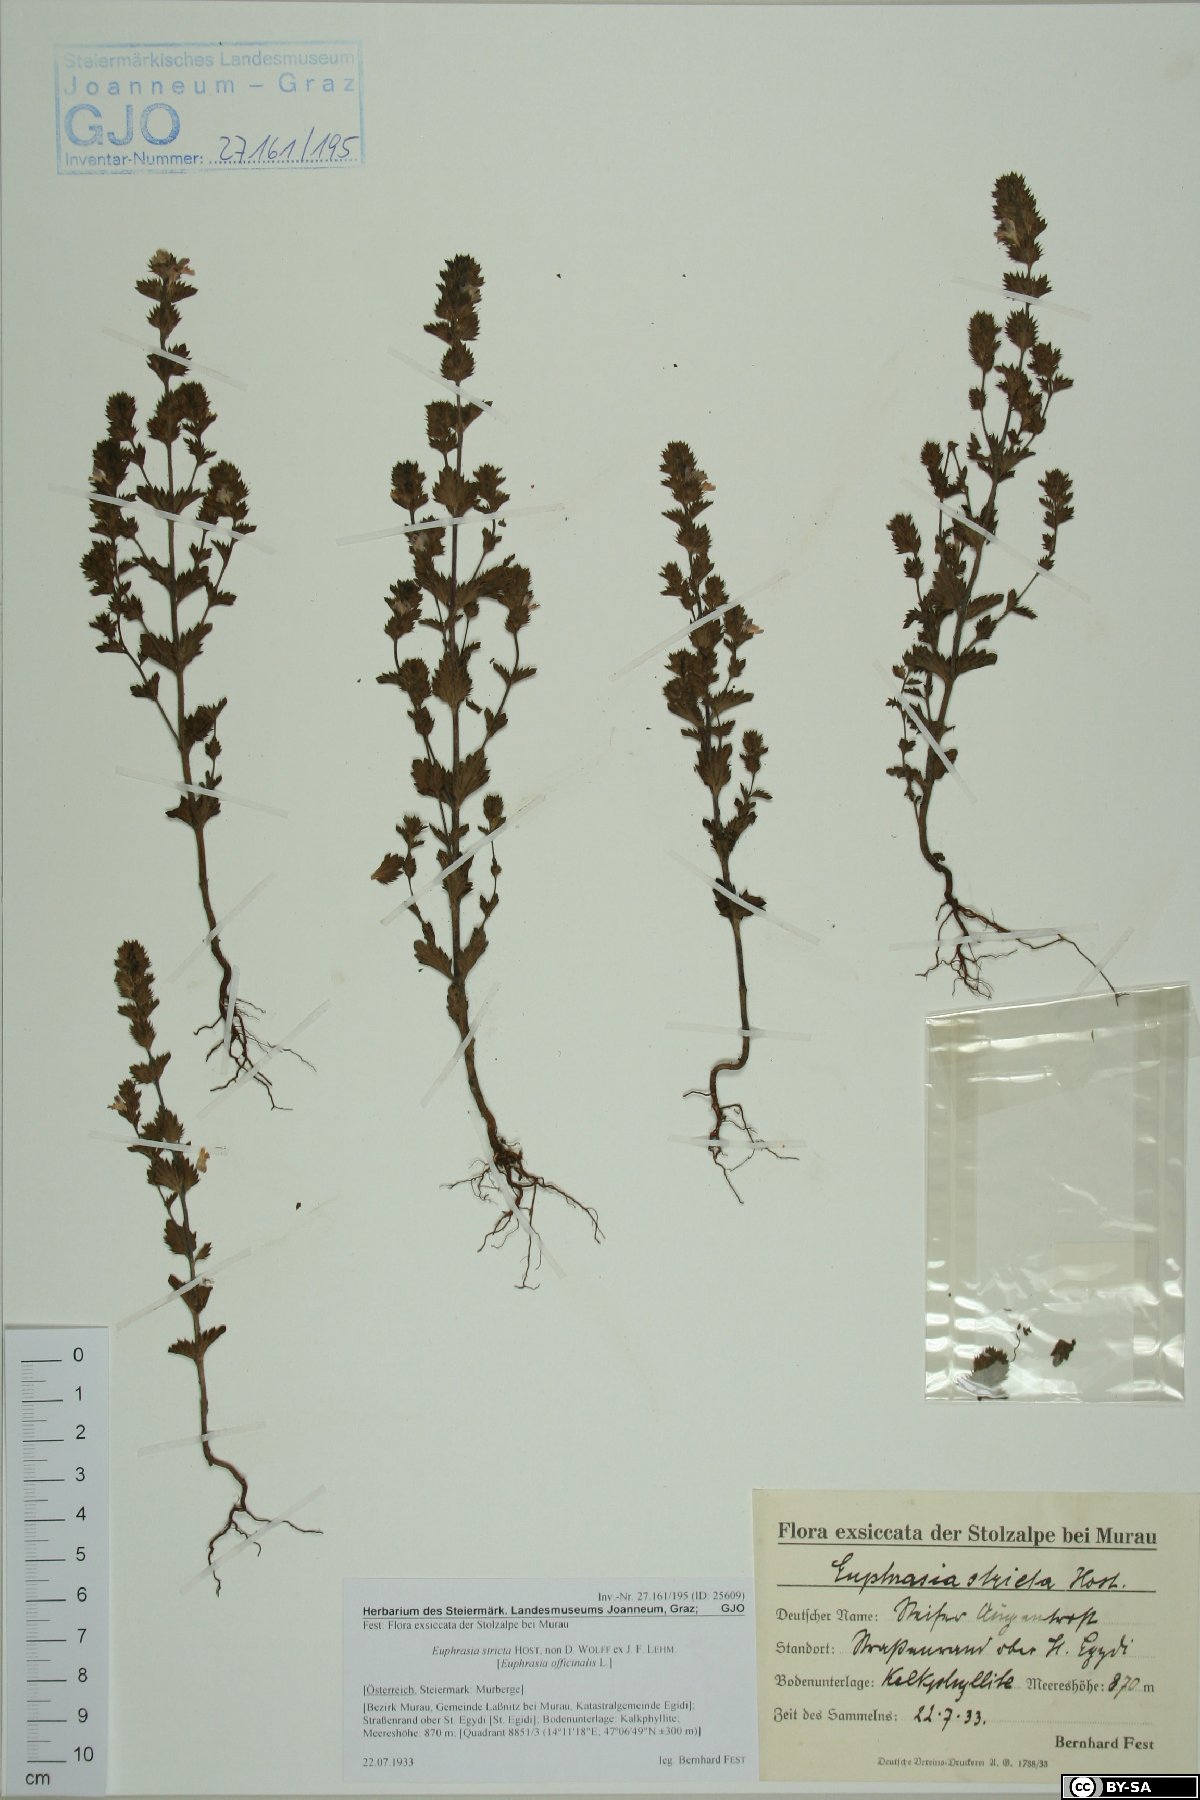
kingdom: Plantae
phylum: Tracheophyta
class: Magnoliopsida
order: Lamiales
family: Orobanchaceae
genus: Euphrasia
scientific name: Euphrasia stricta
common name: Drug eyebright
